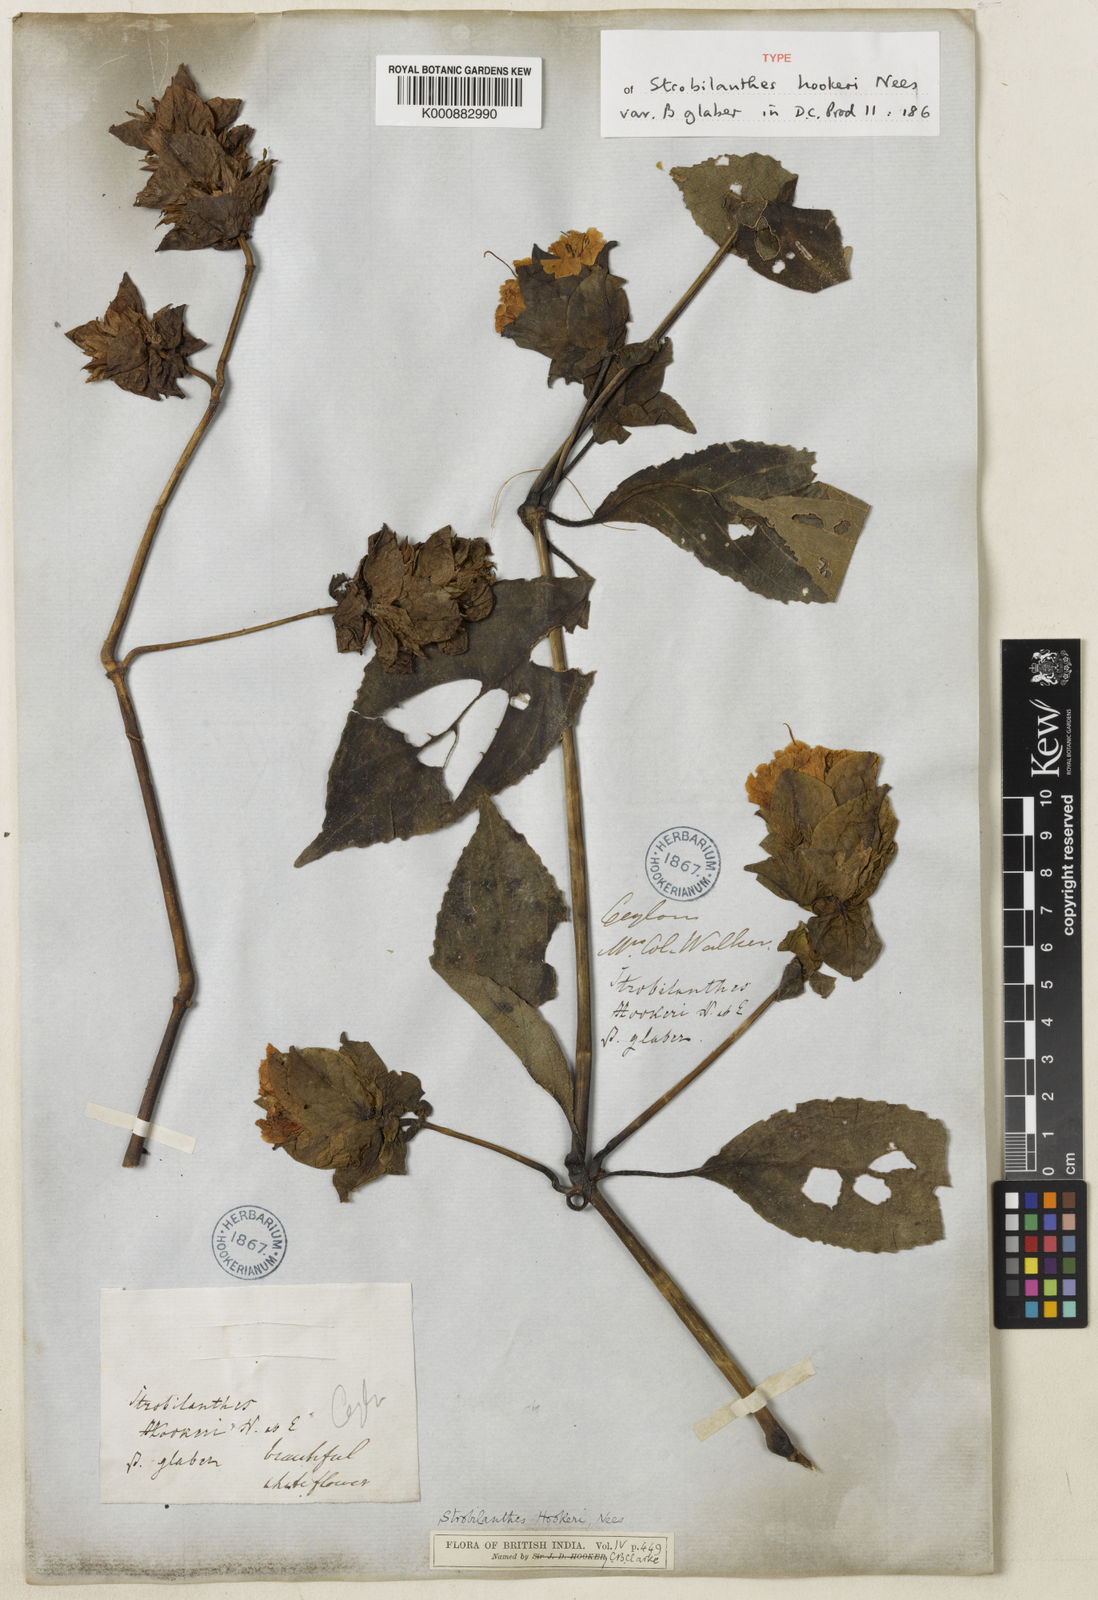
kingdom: Plantae
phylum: Tracheophyta
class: Magnoliopsida
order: Lamiales
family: Acanthaceae
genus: Strobilanthes
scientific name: Strobilanthes hookeri
